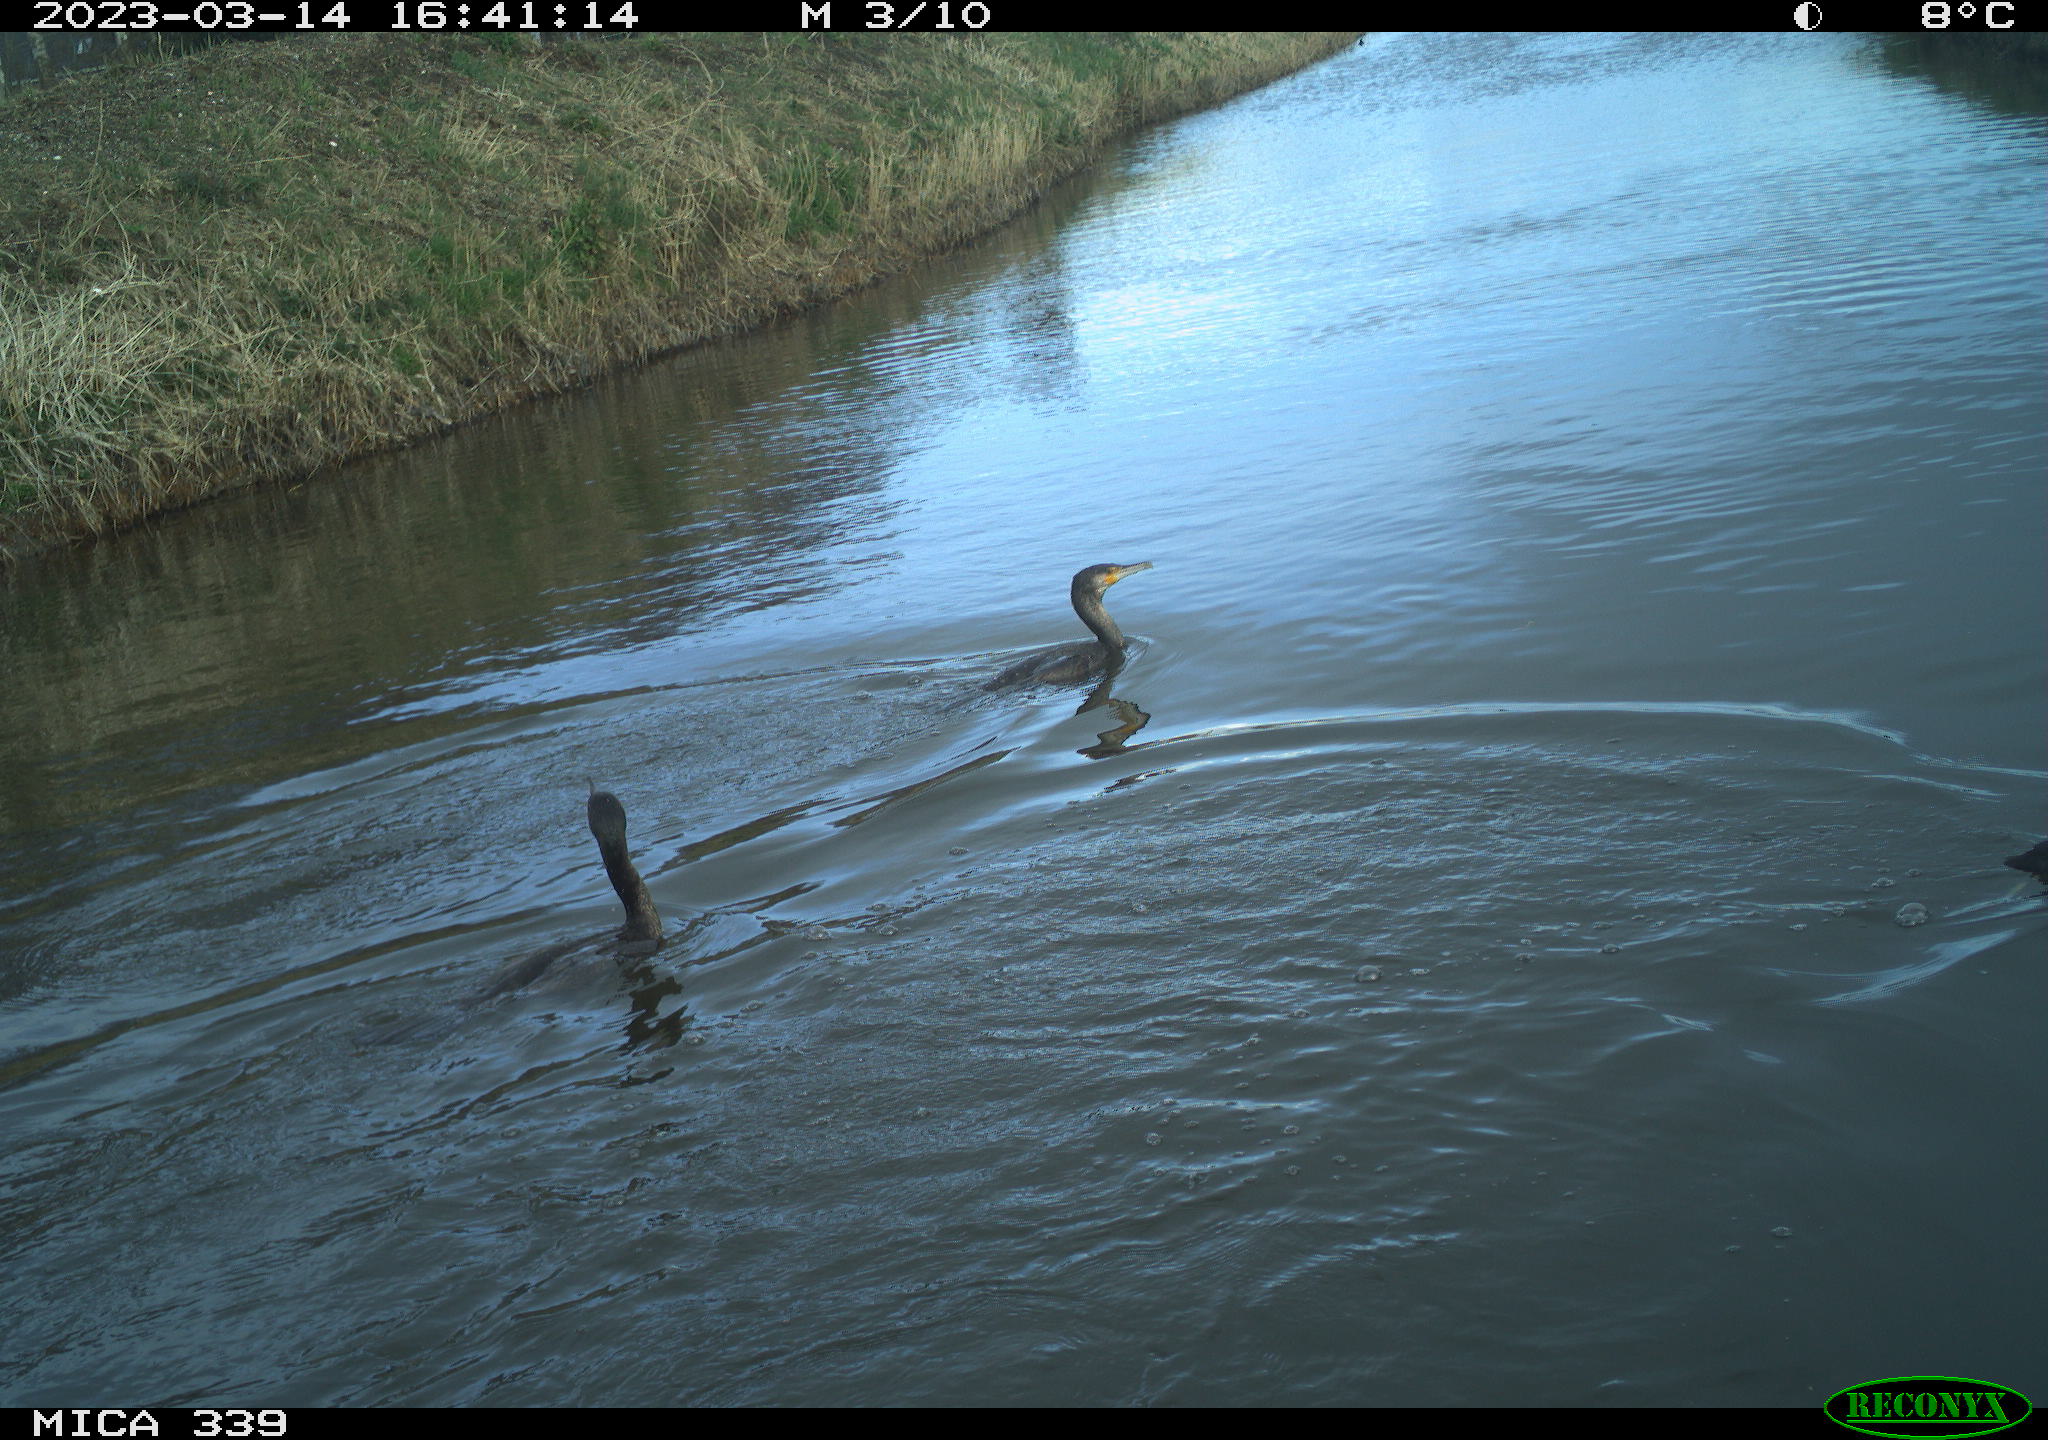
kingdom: Animalia
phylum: Chordata
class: Aves
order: Suliformes
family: Phalacrocoracidae
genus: Phalacrocorax
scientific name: Phalacrocorax carbo
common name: Great cormorant
